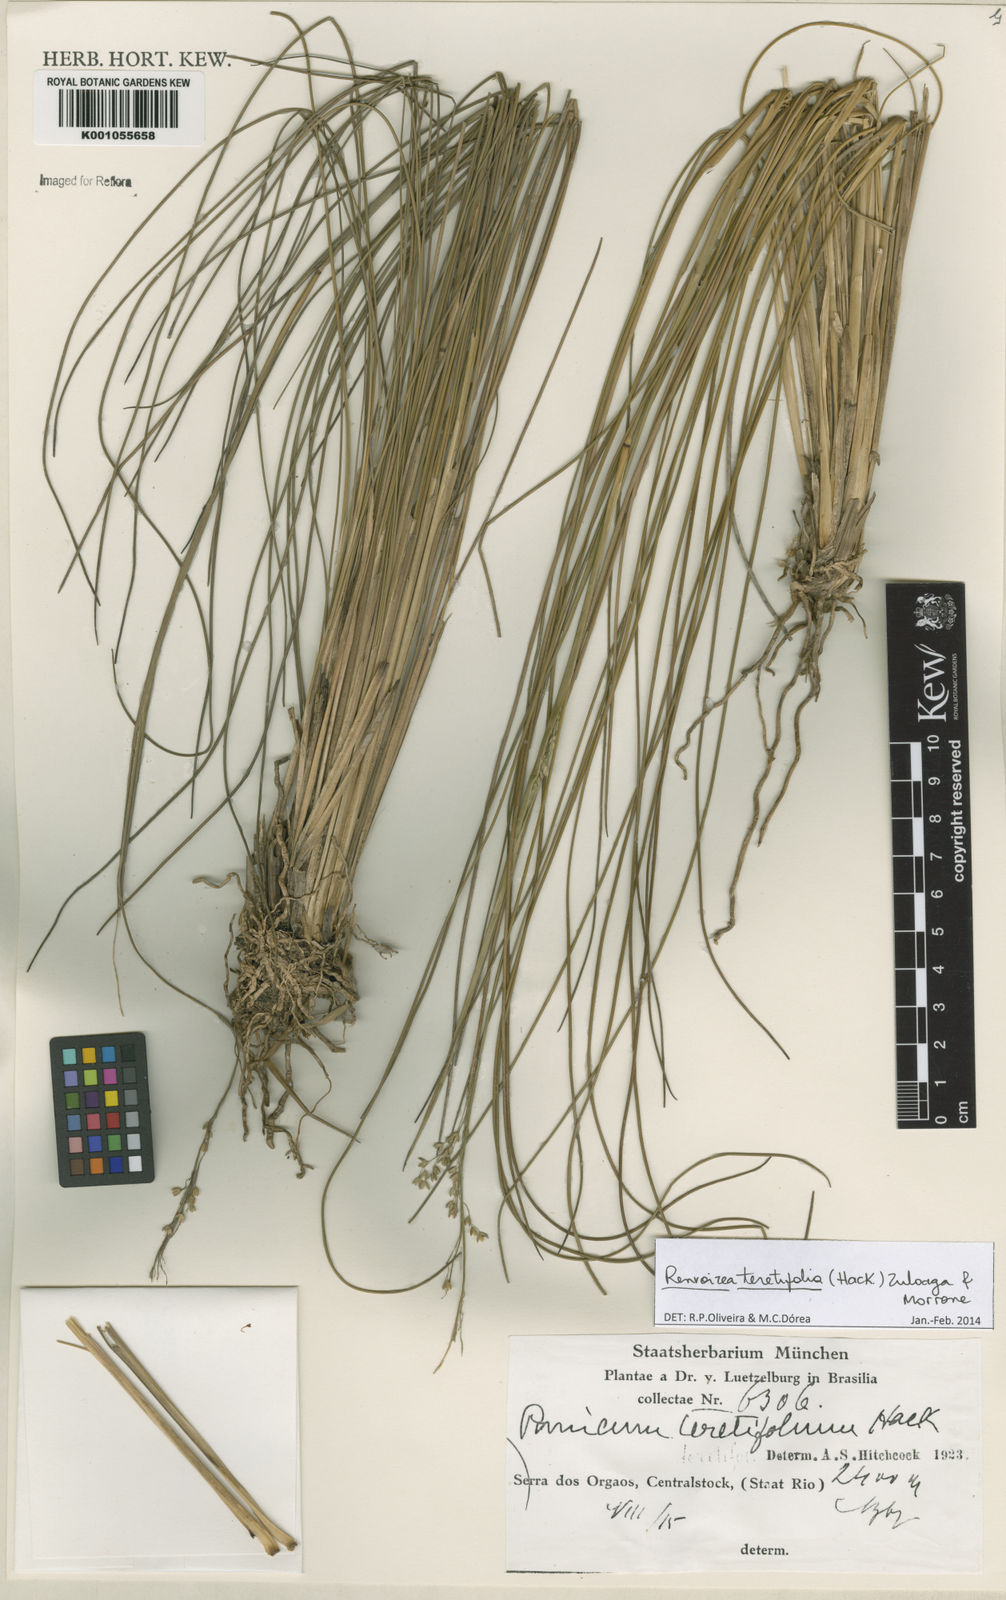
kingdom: Plantae
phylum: Tracheophyta
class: Liliopsida
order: Poales
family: Poaceae
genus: Renvoizea
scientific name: Renvoizea teretifolia
